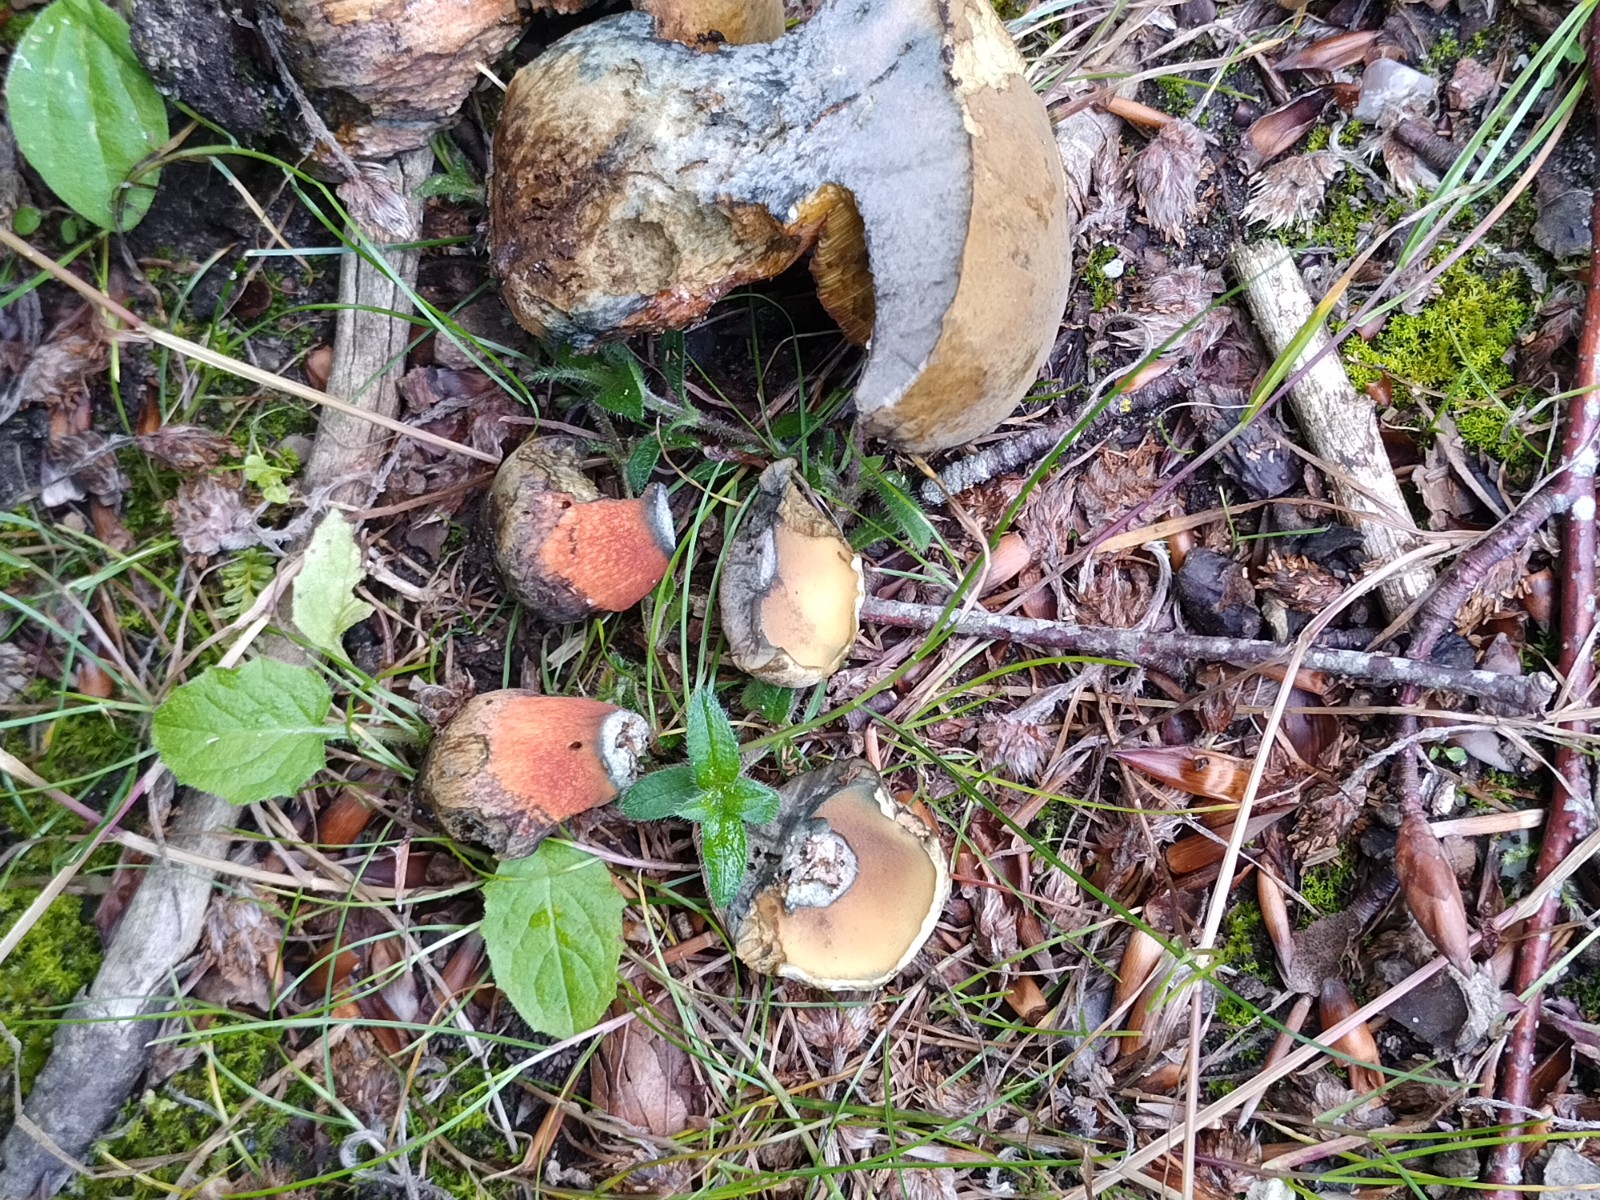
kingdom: Fungi
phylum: Basidiomycota
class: Agaricomycetes
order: Boletales
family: Boletaceae
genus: Suillellus
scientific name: Suillellus luridus
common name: netstokket indigorørhat
